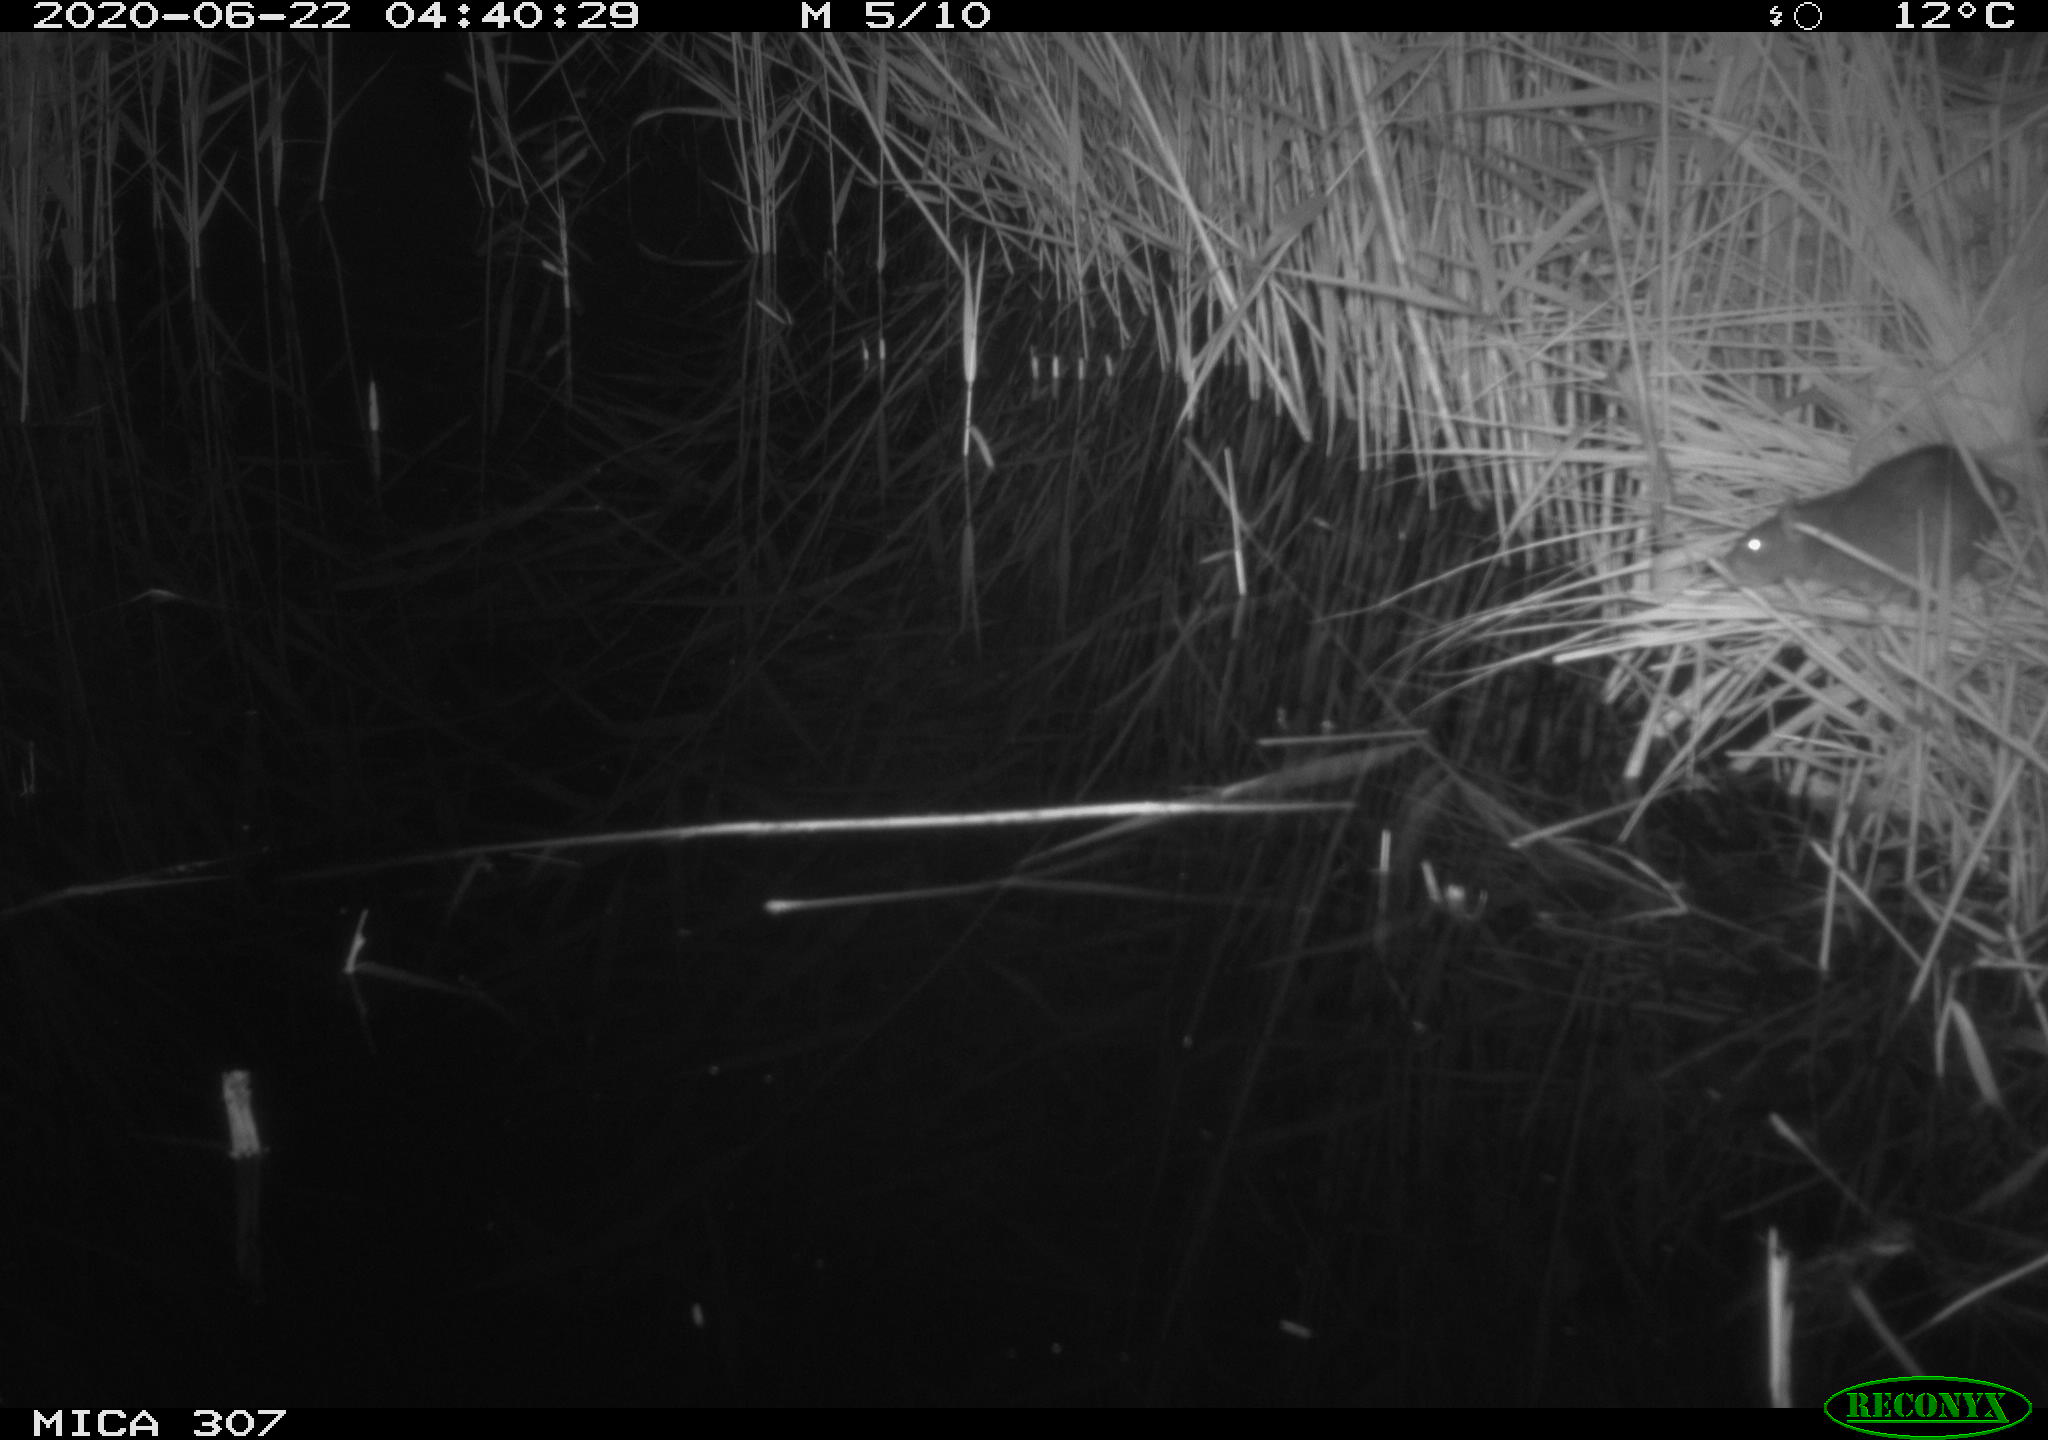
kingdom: Animalia
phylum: Chordata
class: Mammalia
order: Rodentia
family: Muridae
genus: Rattus
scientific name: Rattus norvegicus
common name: Brown rat
